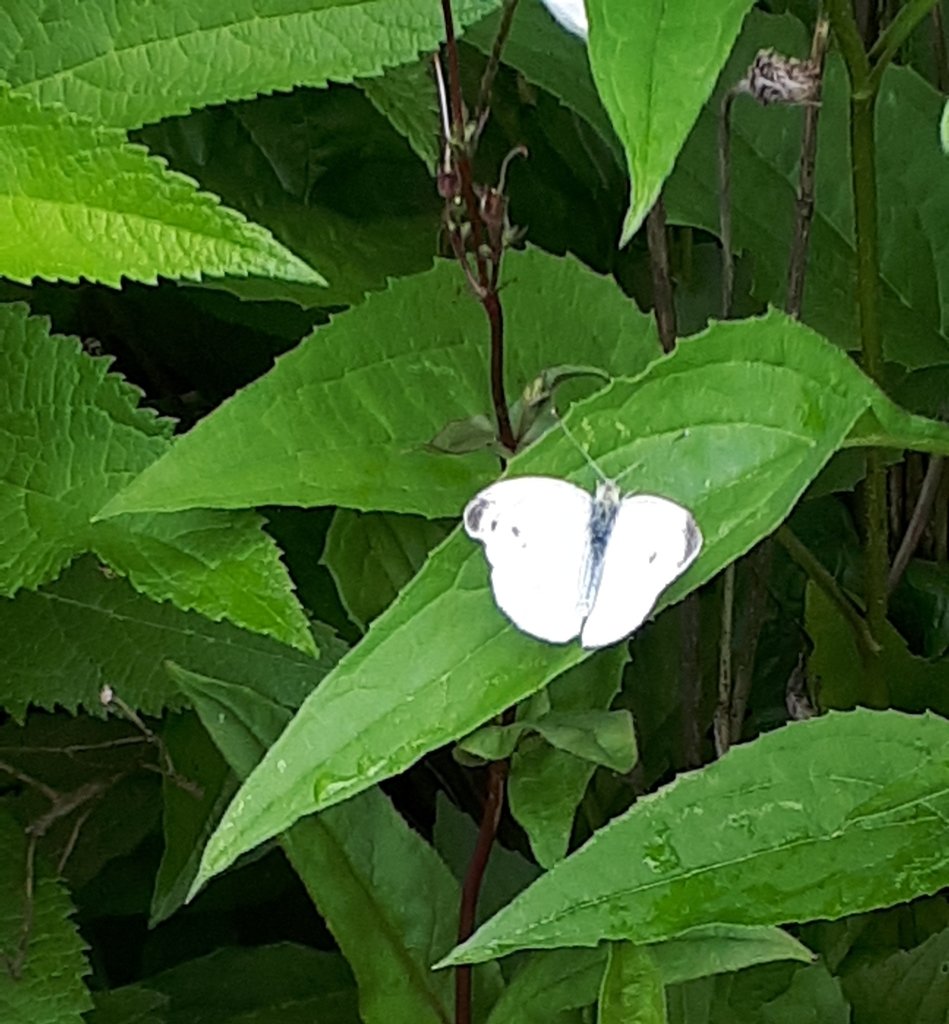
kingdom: Animalia
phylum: Arthropoda
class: Insecta
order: Lepidoptera
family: Pieridae
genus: Pieris
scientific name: Pieris rapae
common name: Cabbage White
